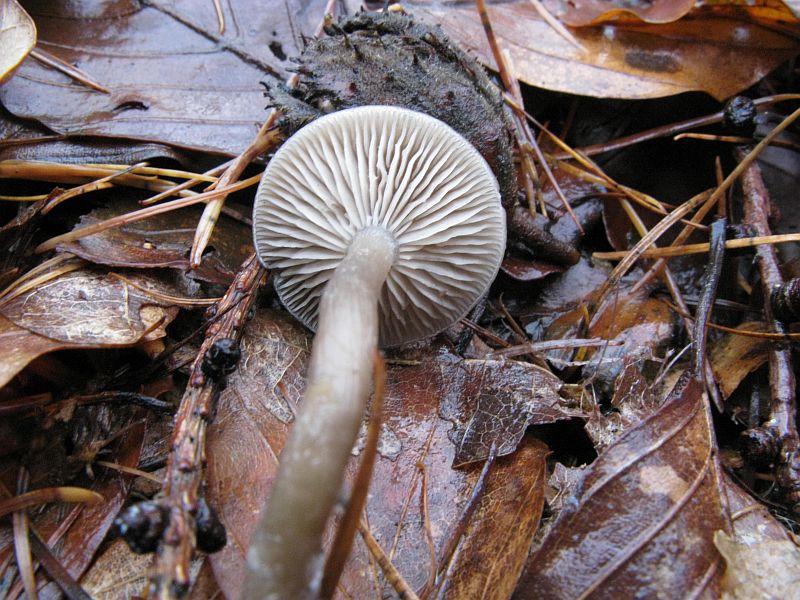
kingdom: Fungi
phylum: Basidiomycota
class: Agaricomycetes
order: Agaricales
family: Tricholomataceae
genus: Clitocybe
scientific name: Clitocybe metachroa
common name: grå tragthat
